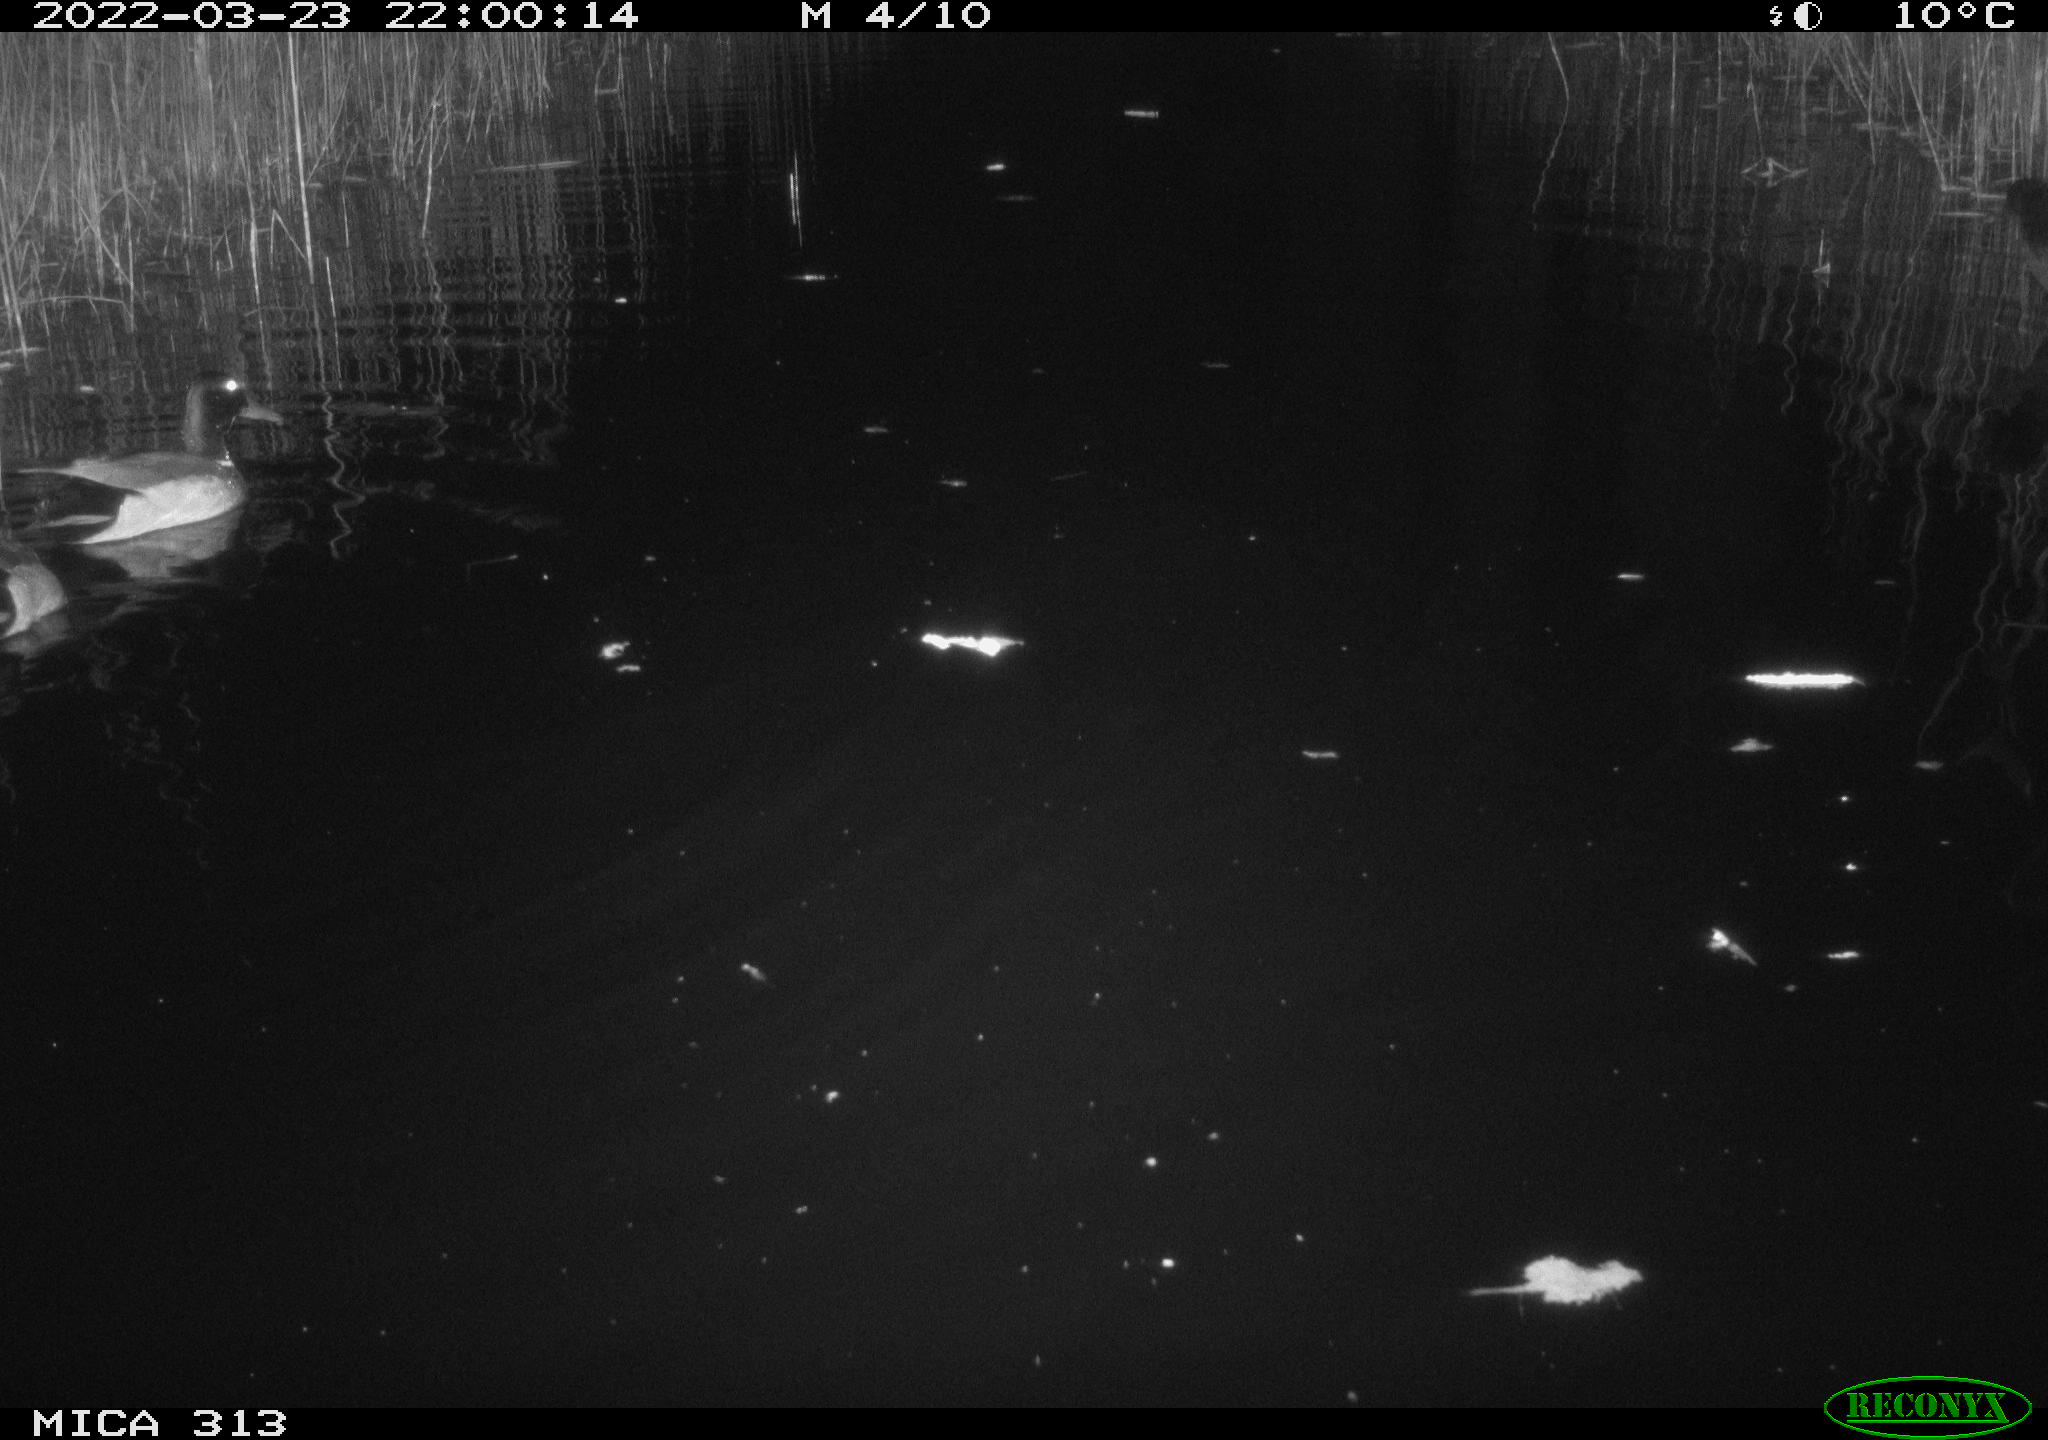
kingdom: Animalia
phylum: Chordata
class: Aves
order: Anseriformes
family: Anatidae
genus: Anas
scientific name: Anas platyrhynchos
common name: Mallard
